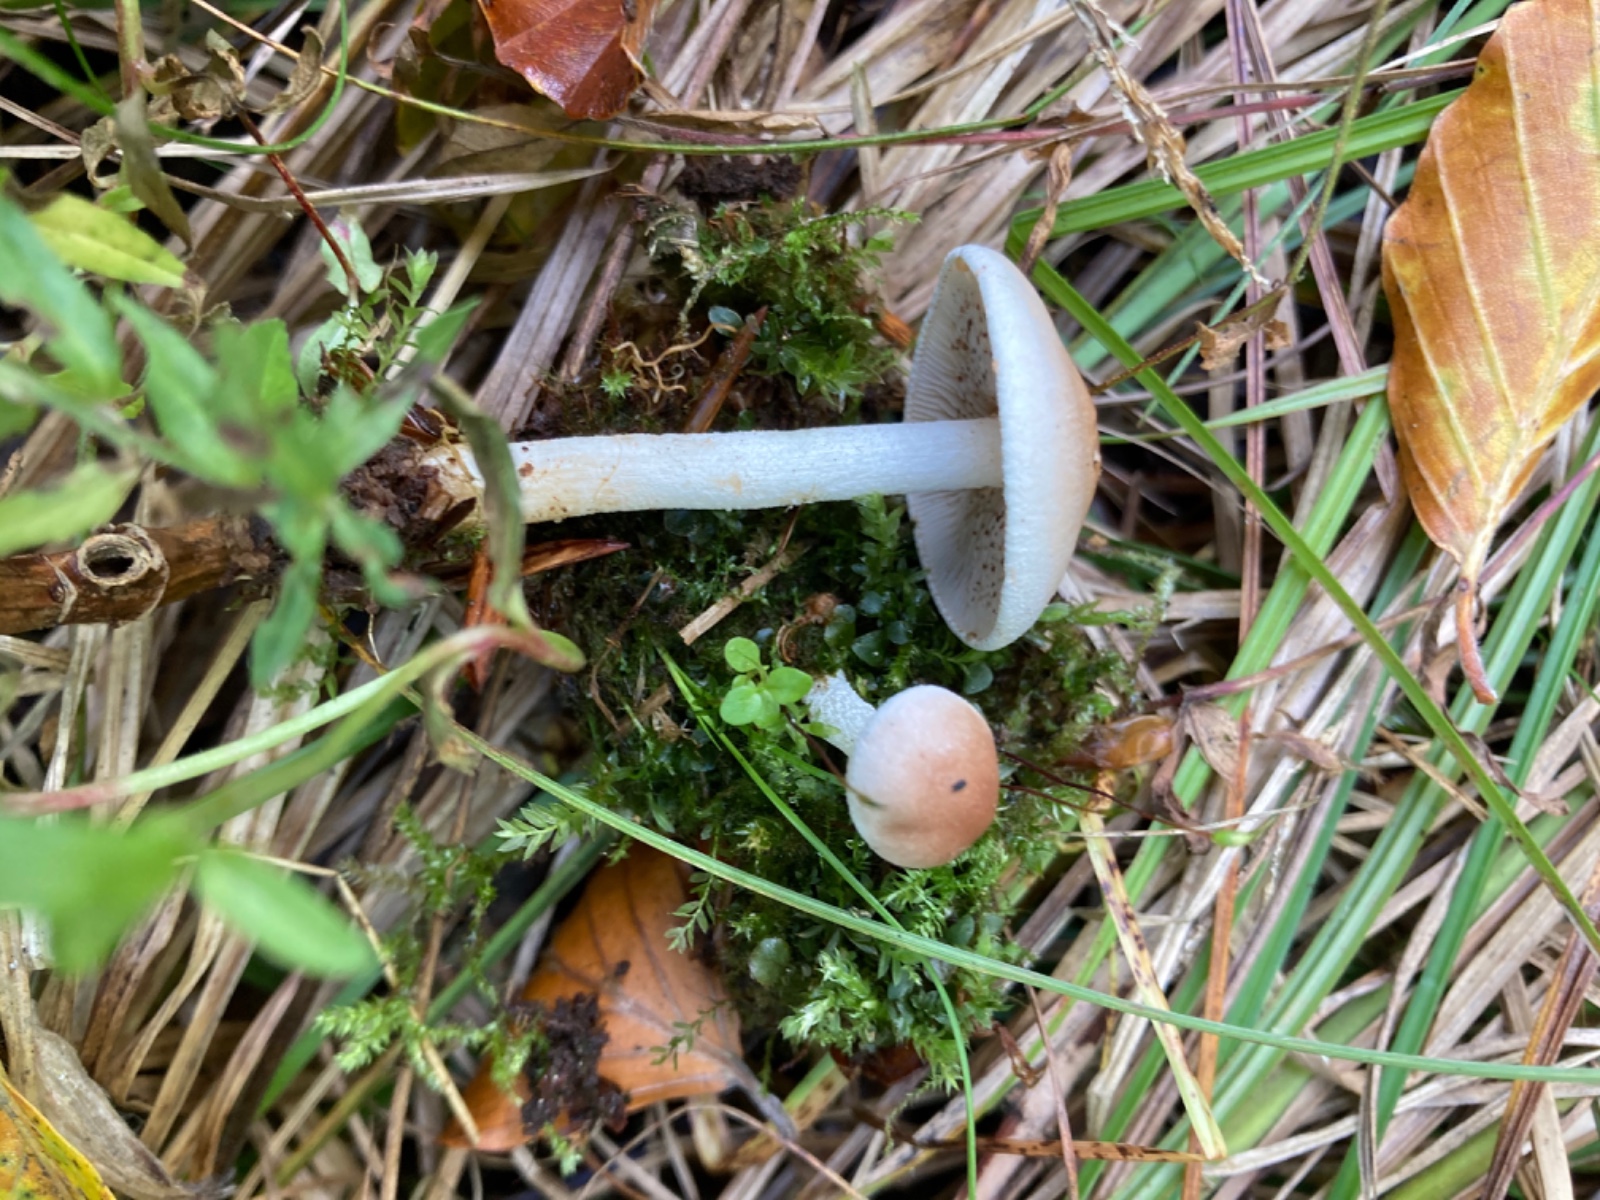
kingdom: Fungi
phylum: Basidiomycota
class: Agaricomycetes
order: Agaricales
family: Hymenogastraceae
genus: Hebeloma
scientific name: Hebeloma pusillum
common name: mose-tåreblad
